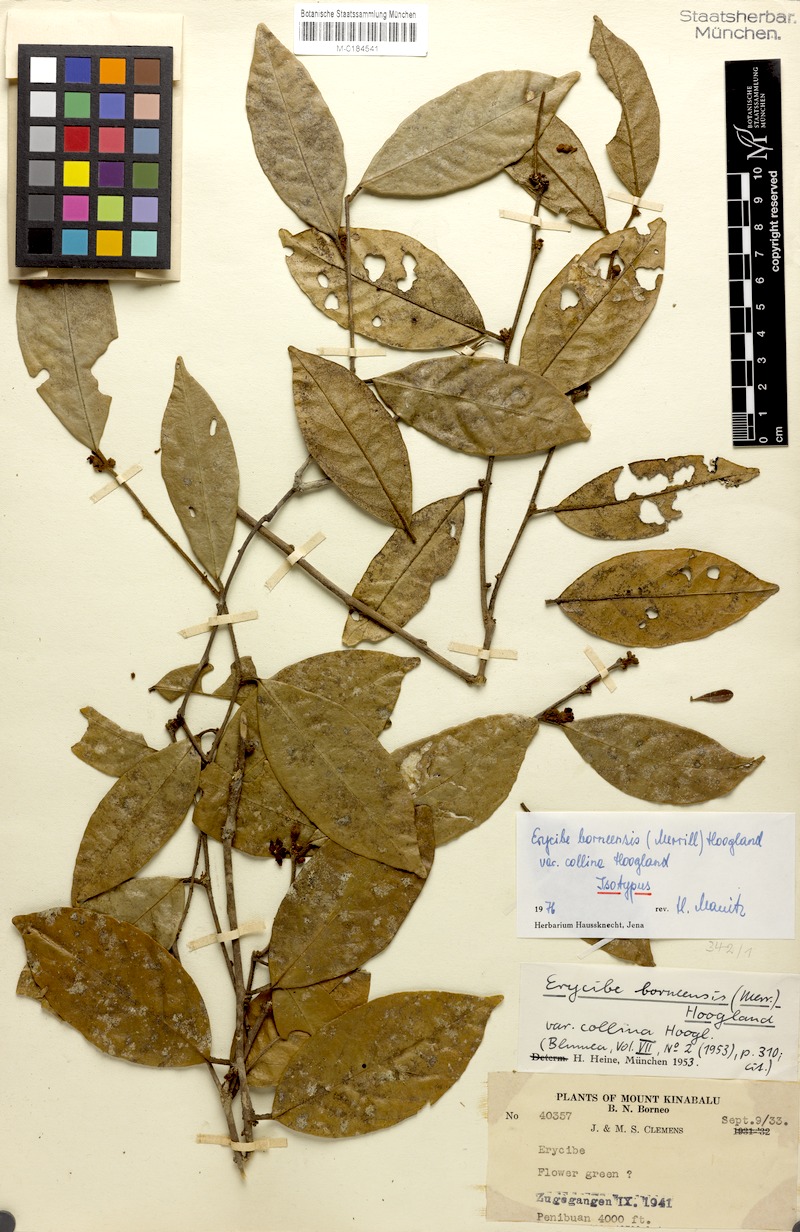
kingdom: Plantae
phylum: Tracheophyta
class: Magnoliopsida
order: Solanales
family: Convolvulaceae
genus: Erycibe
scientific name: Erycibe borneensis
